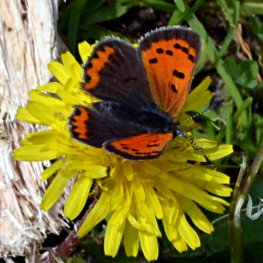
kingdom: Animalia
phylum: Arthropoda
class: Insecta
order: Lepidoptera
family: Lycaenidae
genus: Lycaena
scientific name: Lycaena phlaeas
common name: American Copper
